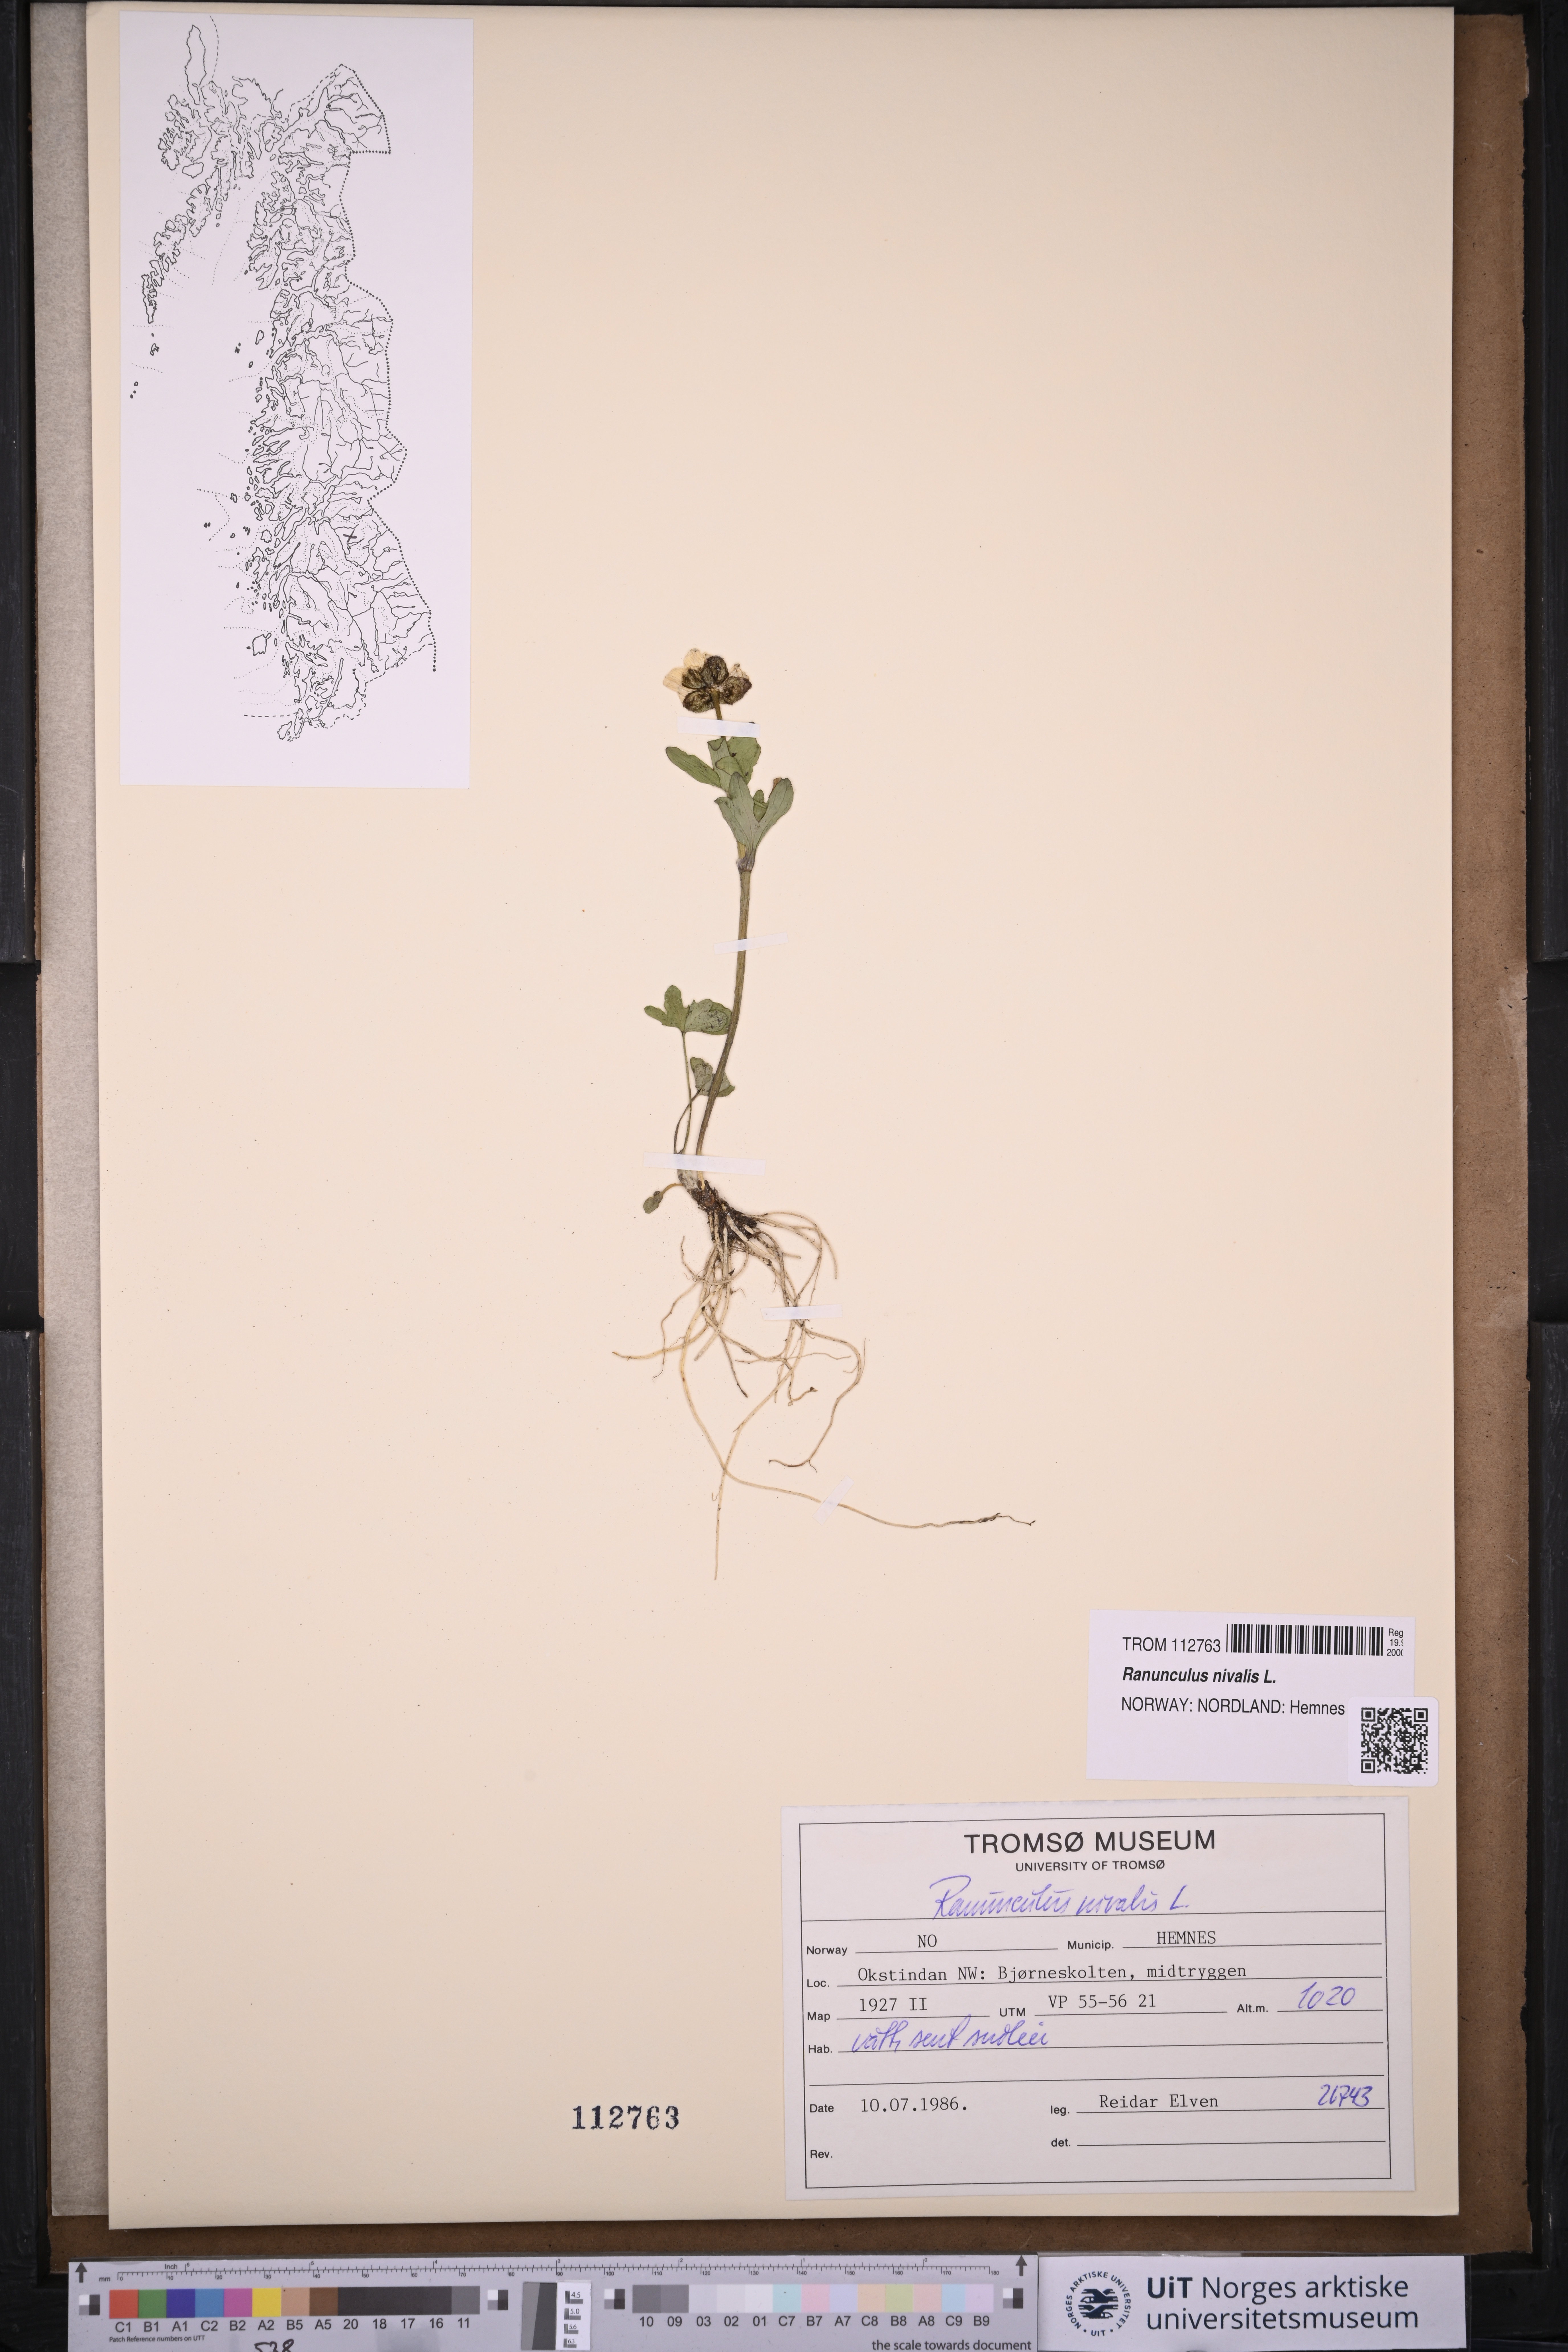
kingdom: Plantae
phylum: Tracheophyta
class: Magnoliopsida
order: Ranunculales
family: Ranunculaceae
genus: Ranunculus
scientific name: Ranunculus nivalis
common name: Snow buttercup
